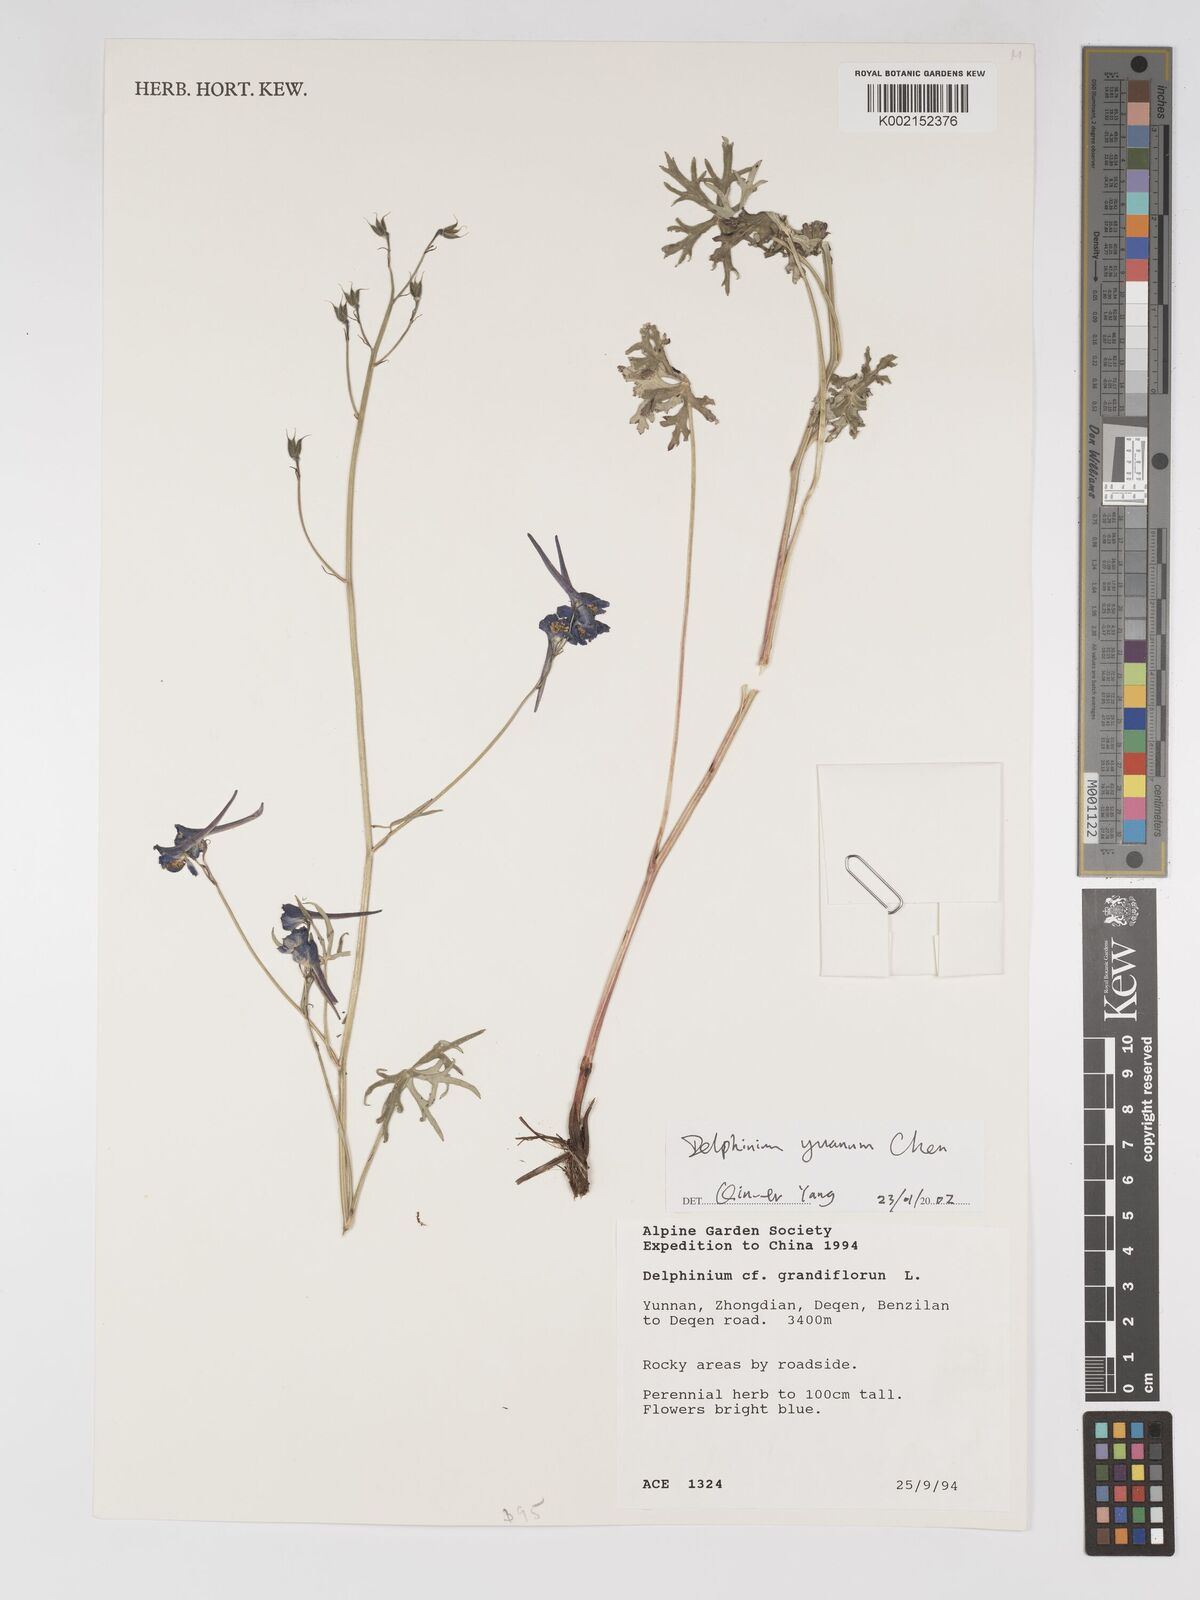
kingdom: Plantae
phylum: Tracheophyta
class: Magnoliopsida
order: Ranunculales
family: Ranunculaceae
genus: Delphinium
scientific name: Delphinium yuanum
